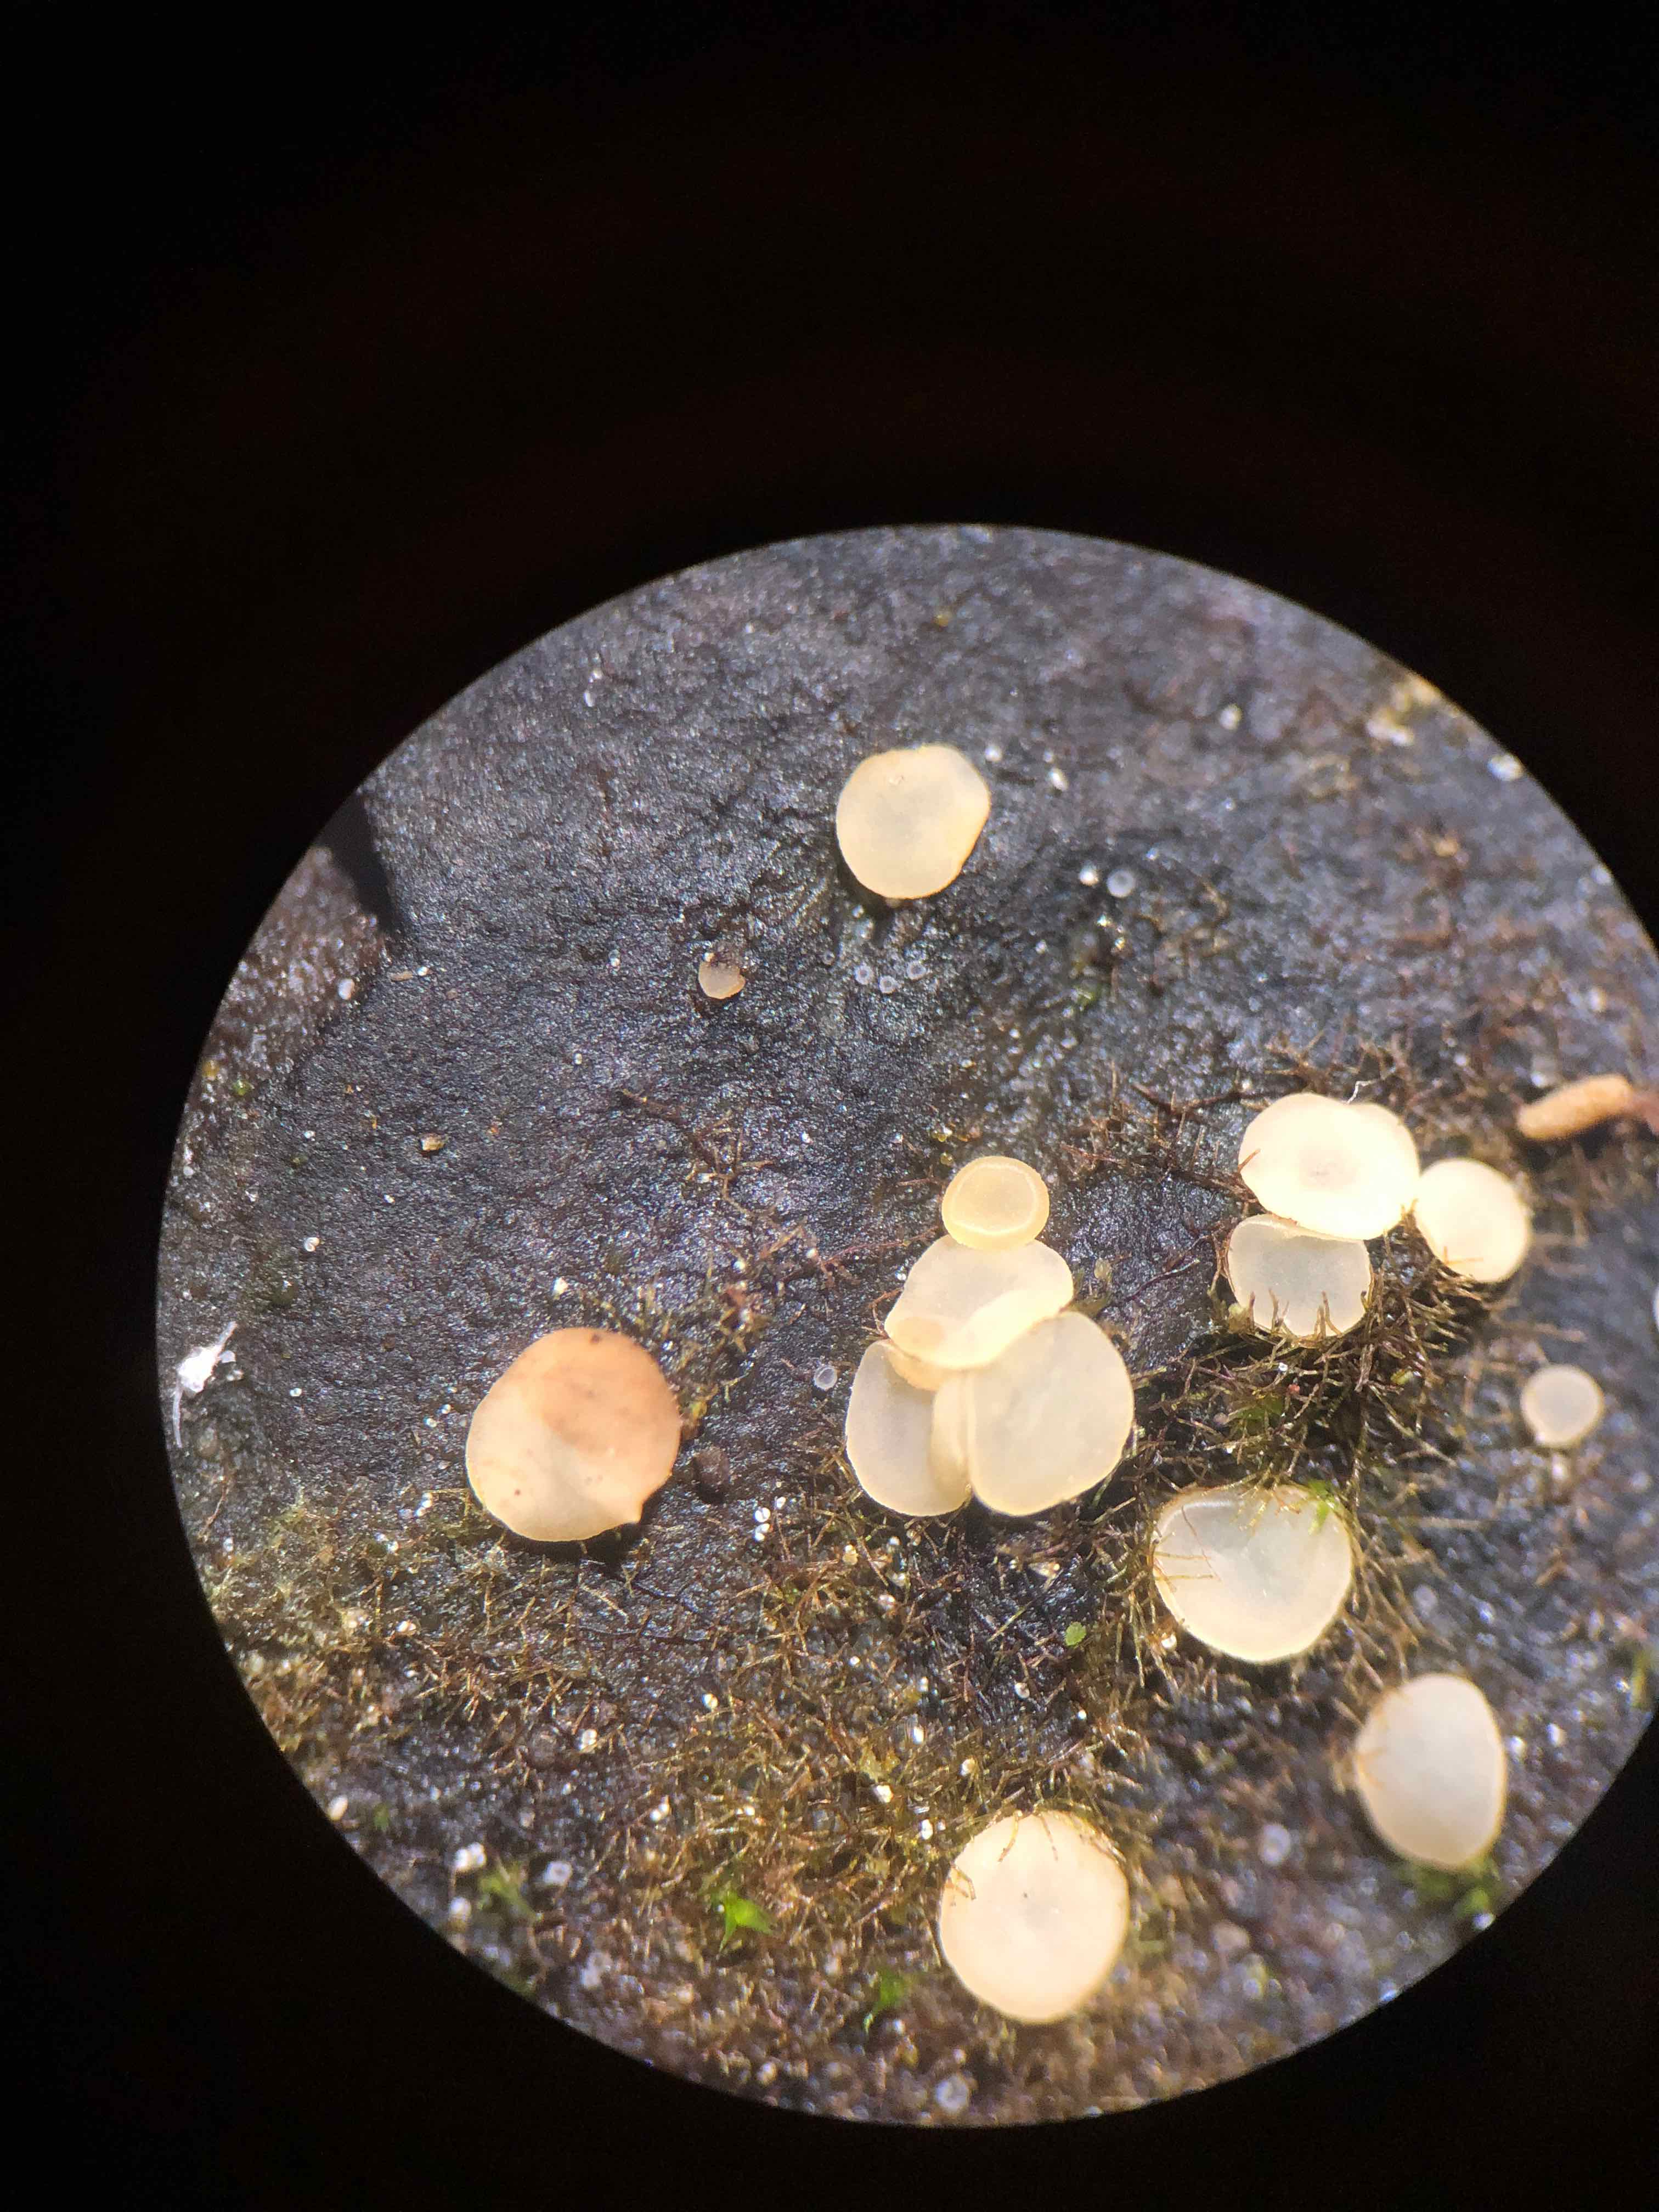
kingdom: Fungi
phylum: Ascomycota
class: Leotiomycetes
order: Helotiales
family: Helotiaceae
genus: Hymenoscyphus
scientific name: Hymenoscyphus imberbis
